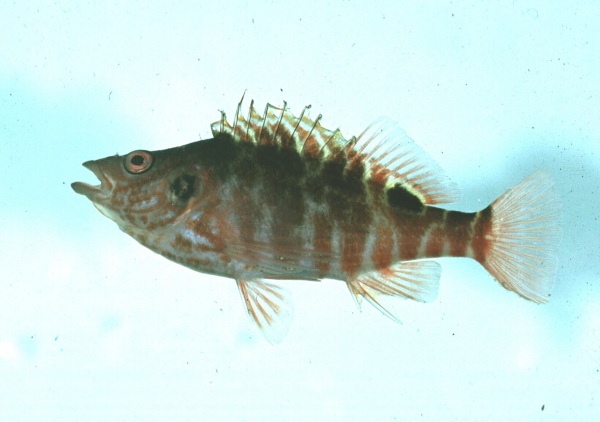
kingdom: Animalia
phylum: Chordata
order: Perciformes
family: Cirrhitidae
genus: Amblycirrhitus
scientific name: Amblycirrhitus bimacula
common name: Twinspot hawkfish
